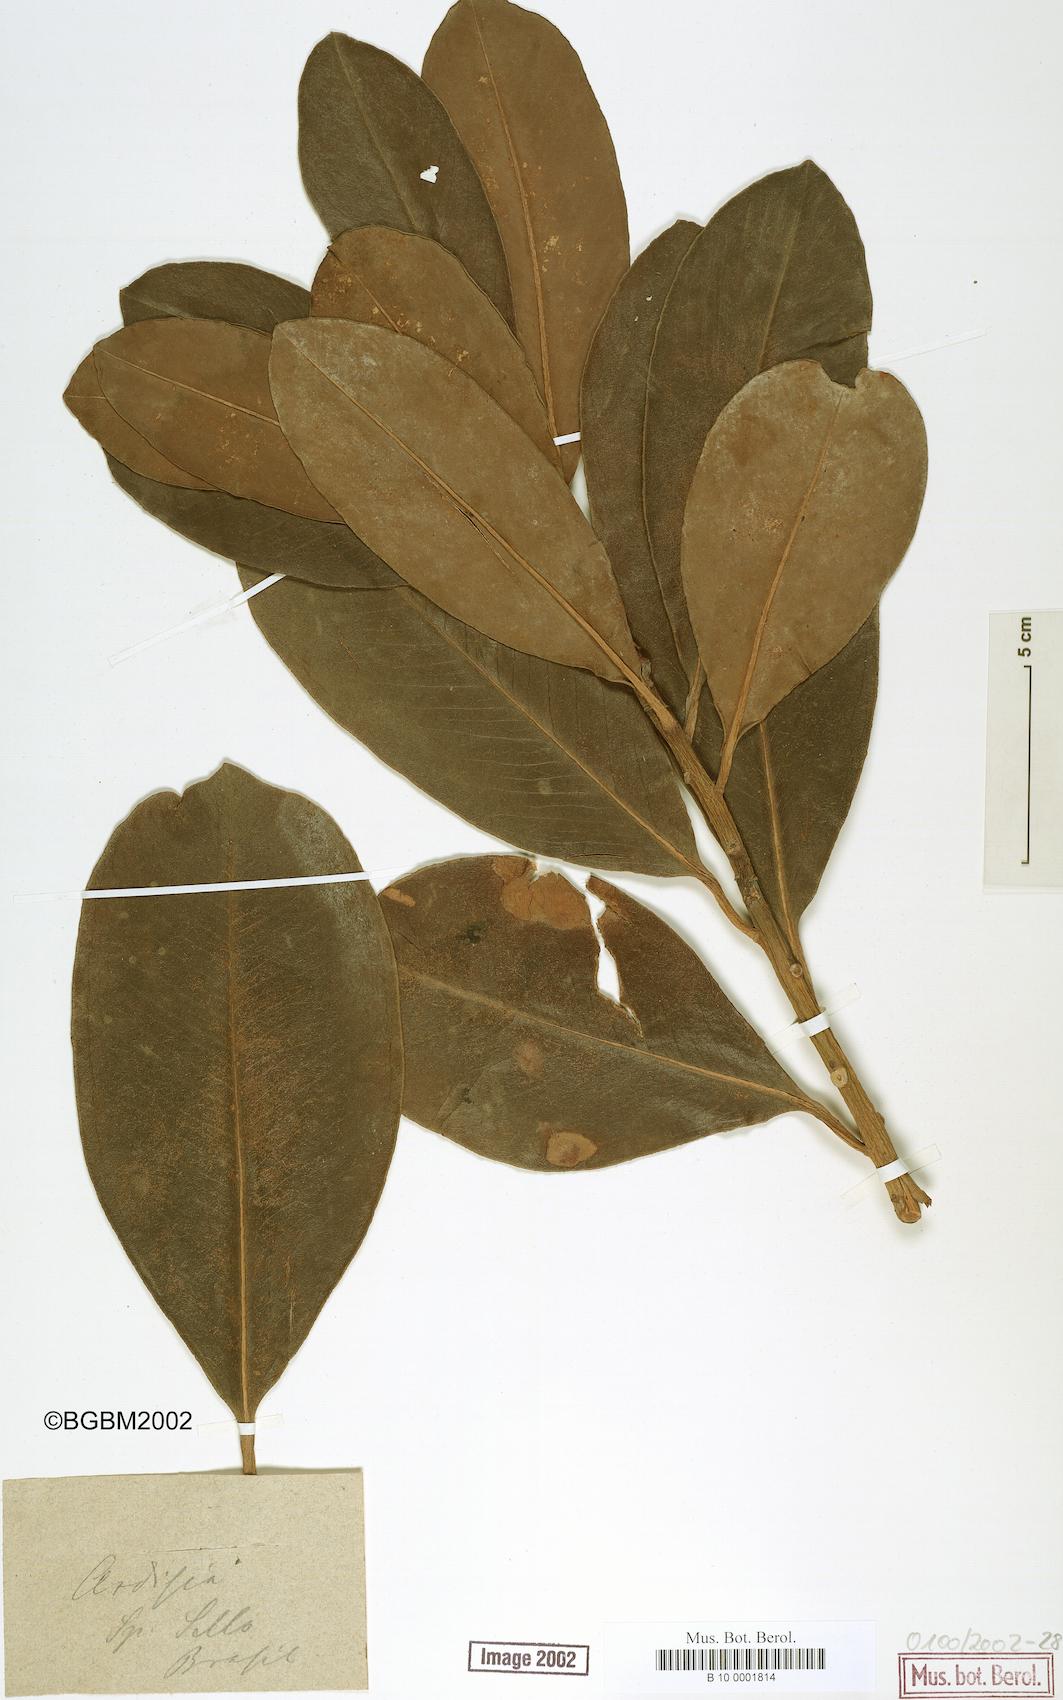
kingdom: Plantae
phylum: Tracheophyta
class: Magnoliopsida
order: Ericales
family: Primulaceae
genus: Ardisia
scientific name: Ardisia
